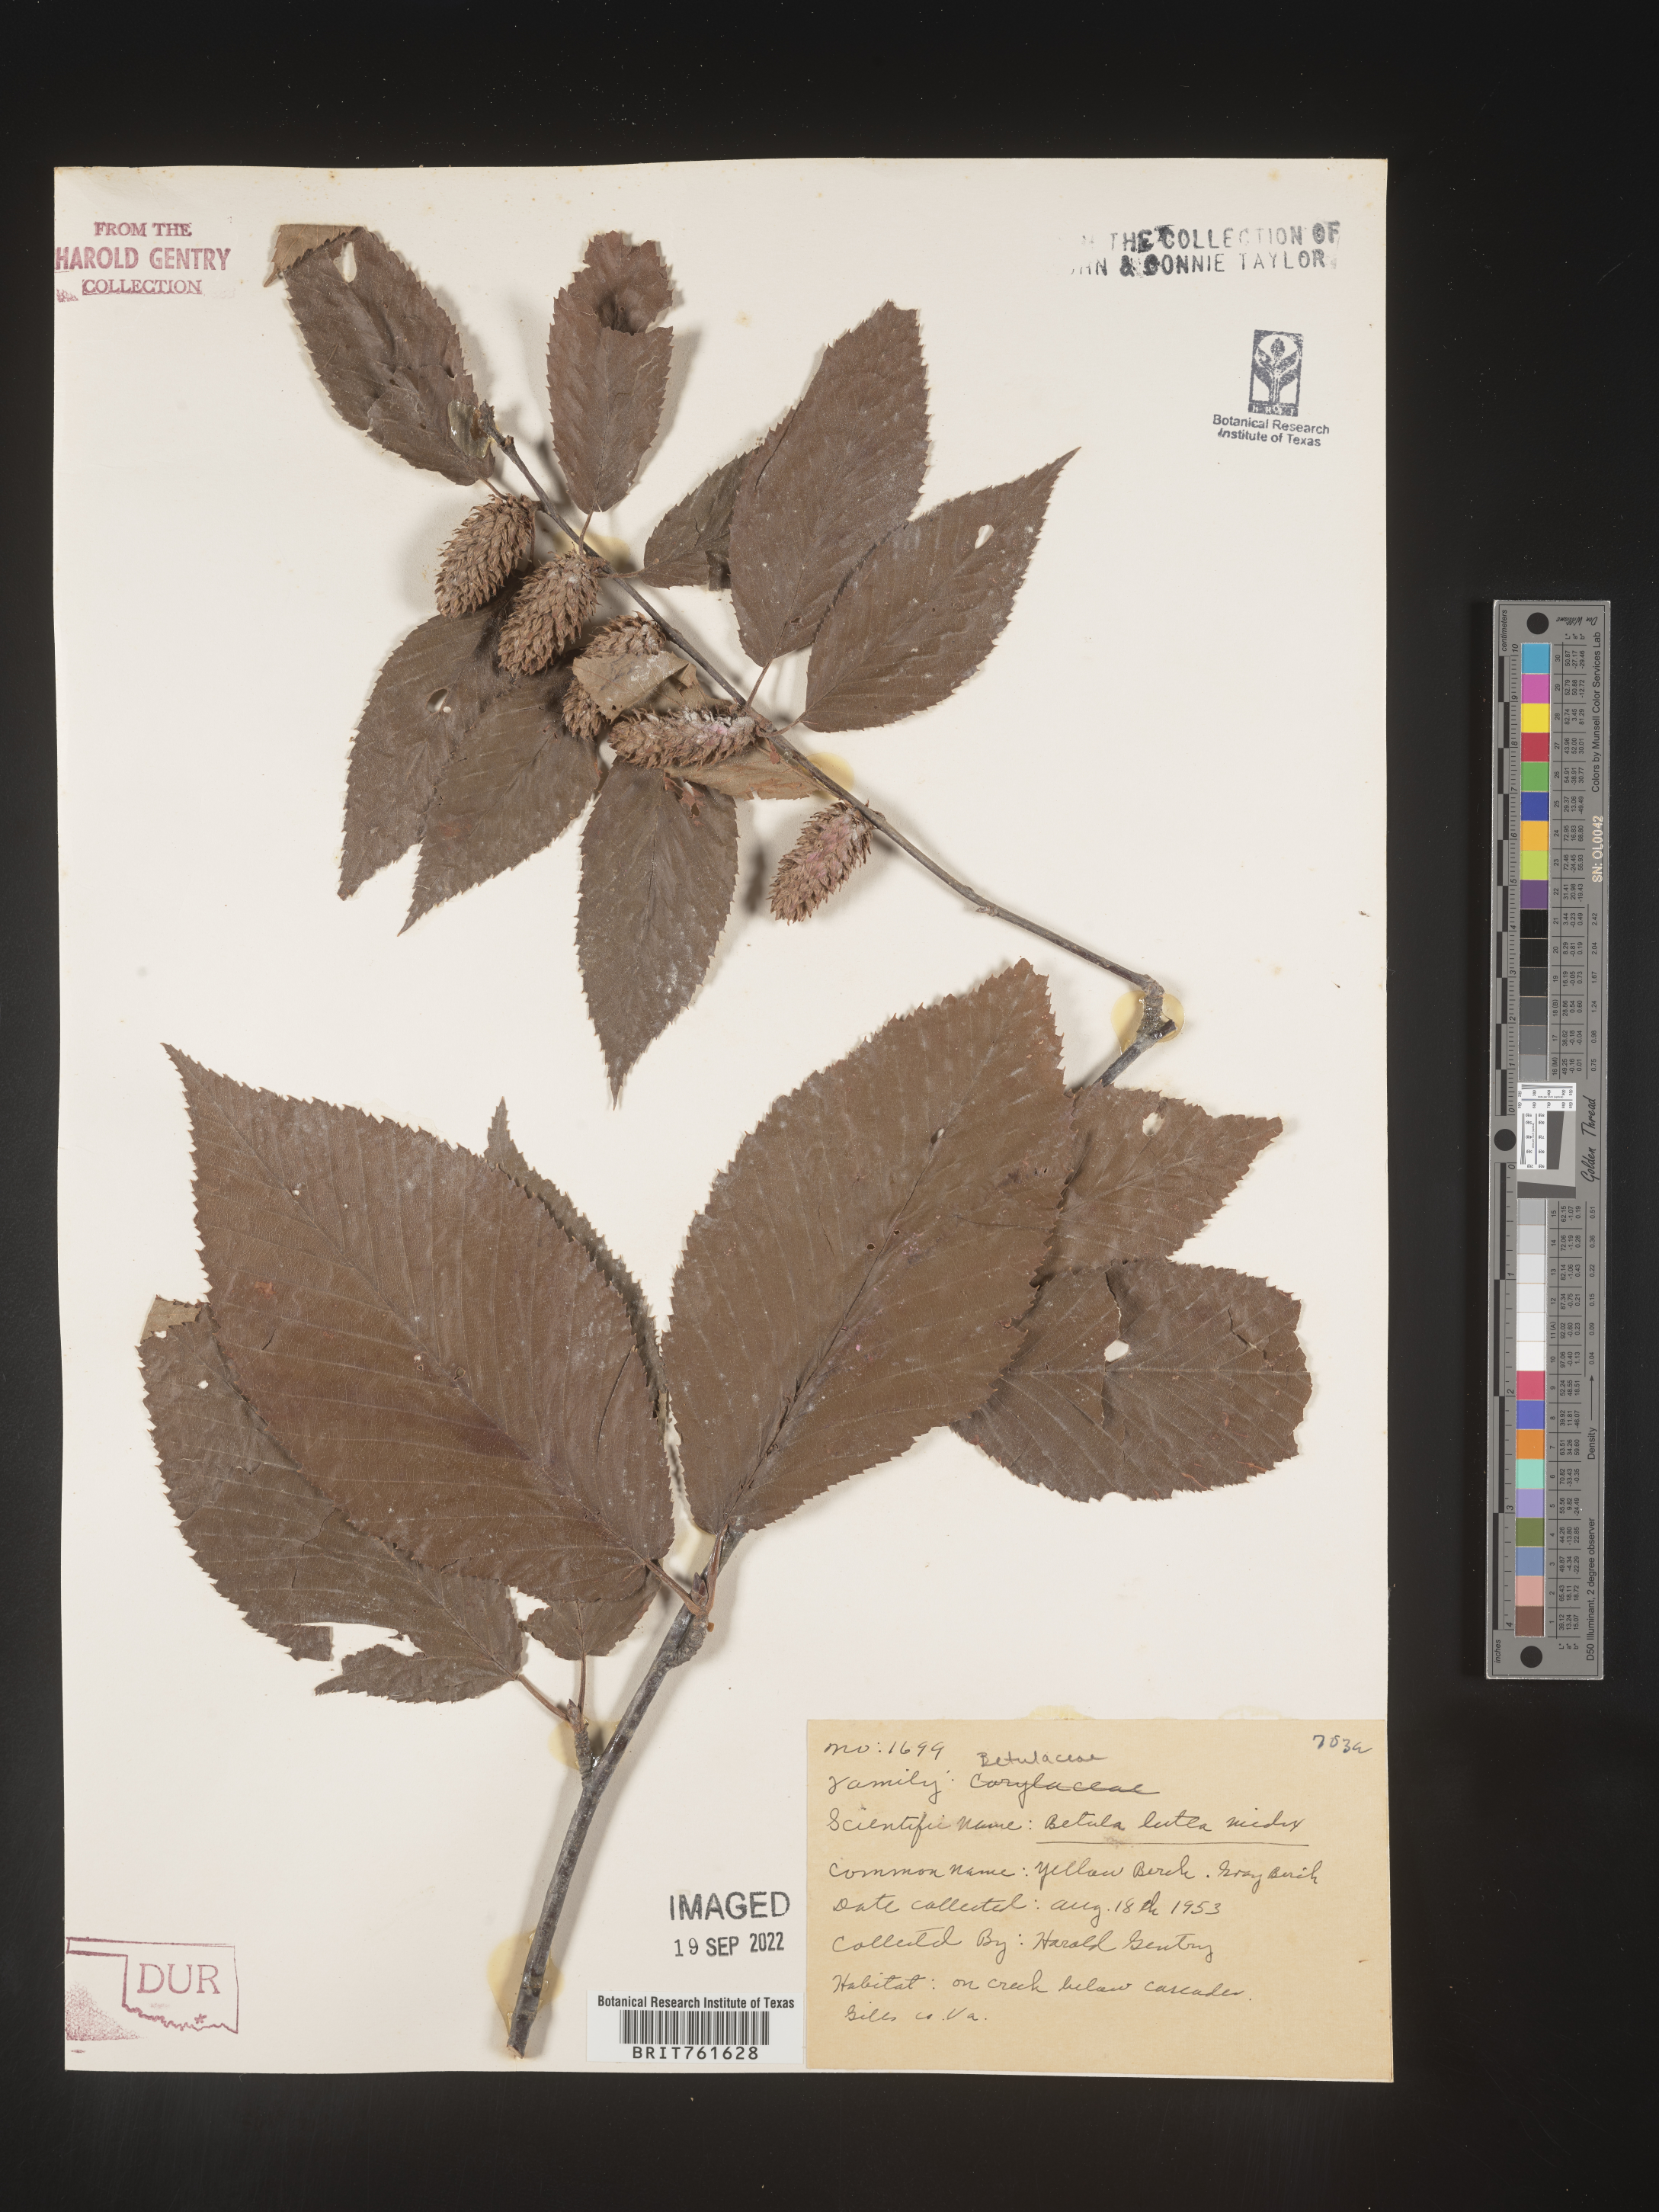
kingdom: Plantae
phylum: Tracheophyta
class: Magnoliopsida
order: Fagales
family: Betulaceae
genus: Betula
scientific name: Betula lenta
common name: Black birch
